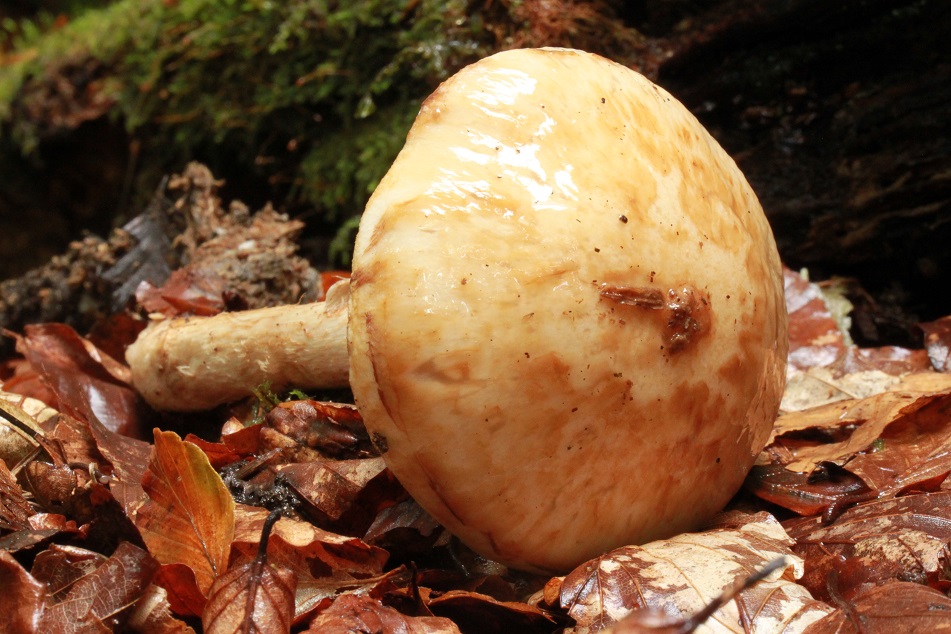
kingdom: Fungi
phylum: Basidiomycota
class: Agaricomycetes
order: Agaricales
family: Hymenogastraceae
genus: Hebeloma
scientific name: Hebeloma radicosum
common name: pælerods-tåreblad
